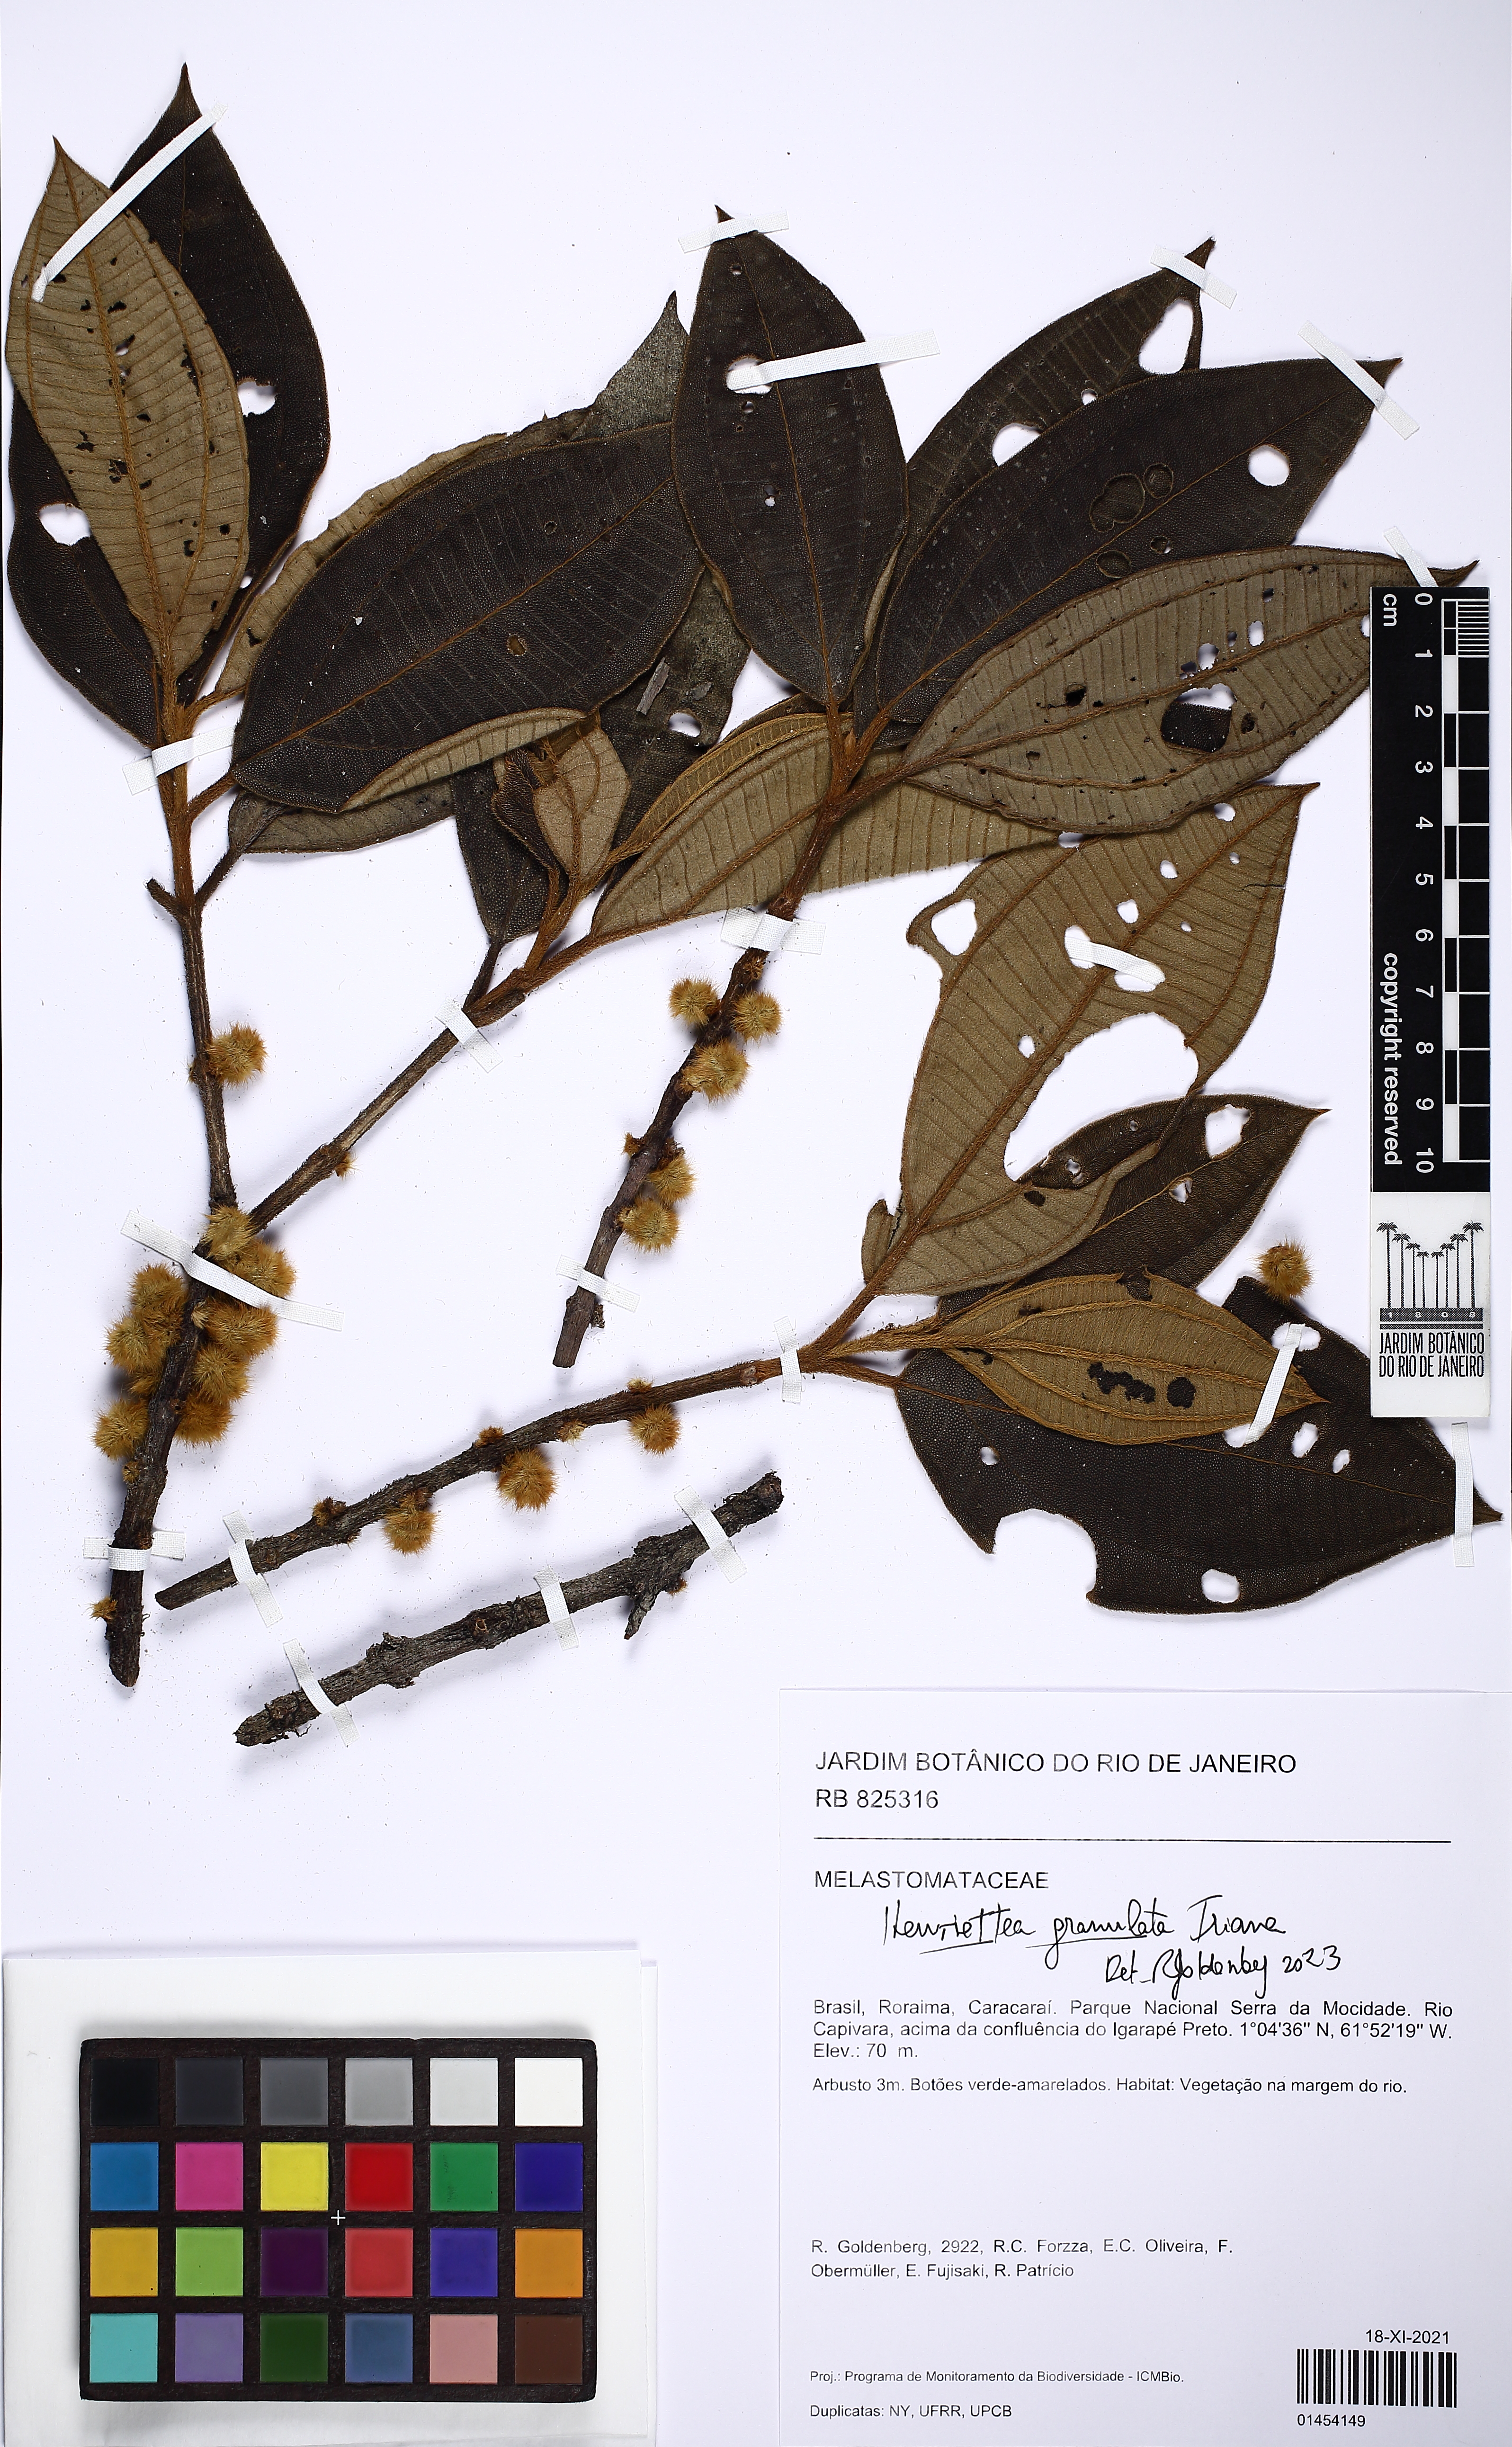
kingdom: Plantae
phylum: Tracheophyta
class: Magnoliopsida
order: Myrtales
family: Melastomataceae
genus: Henriettea
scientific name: Henriettea granulata
